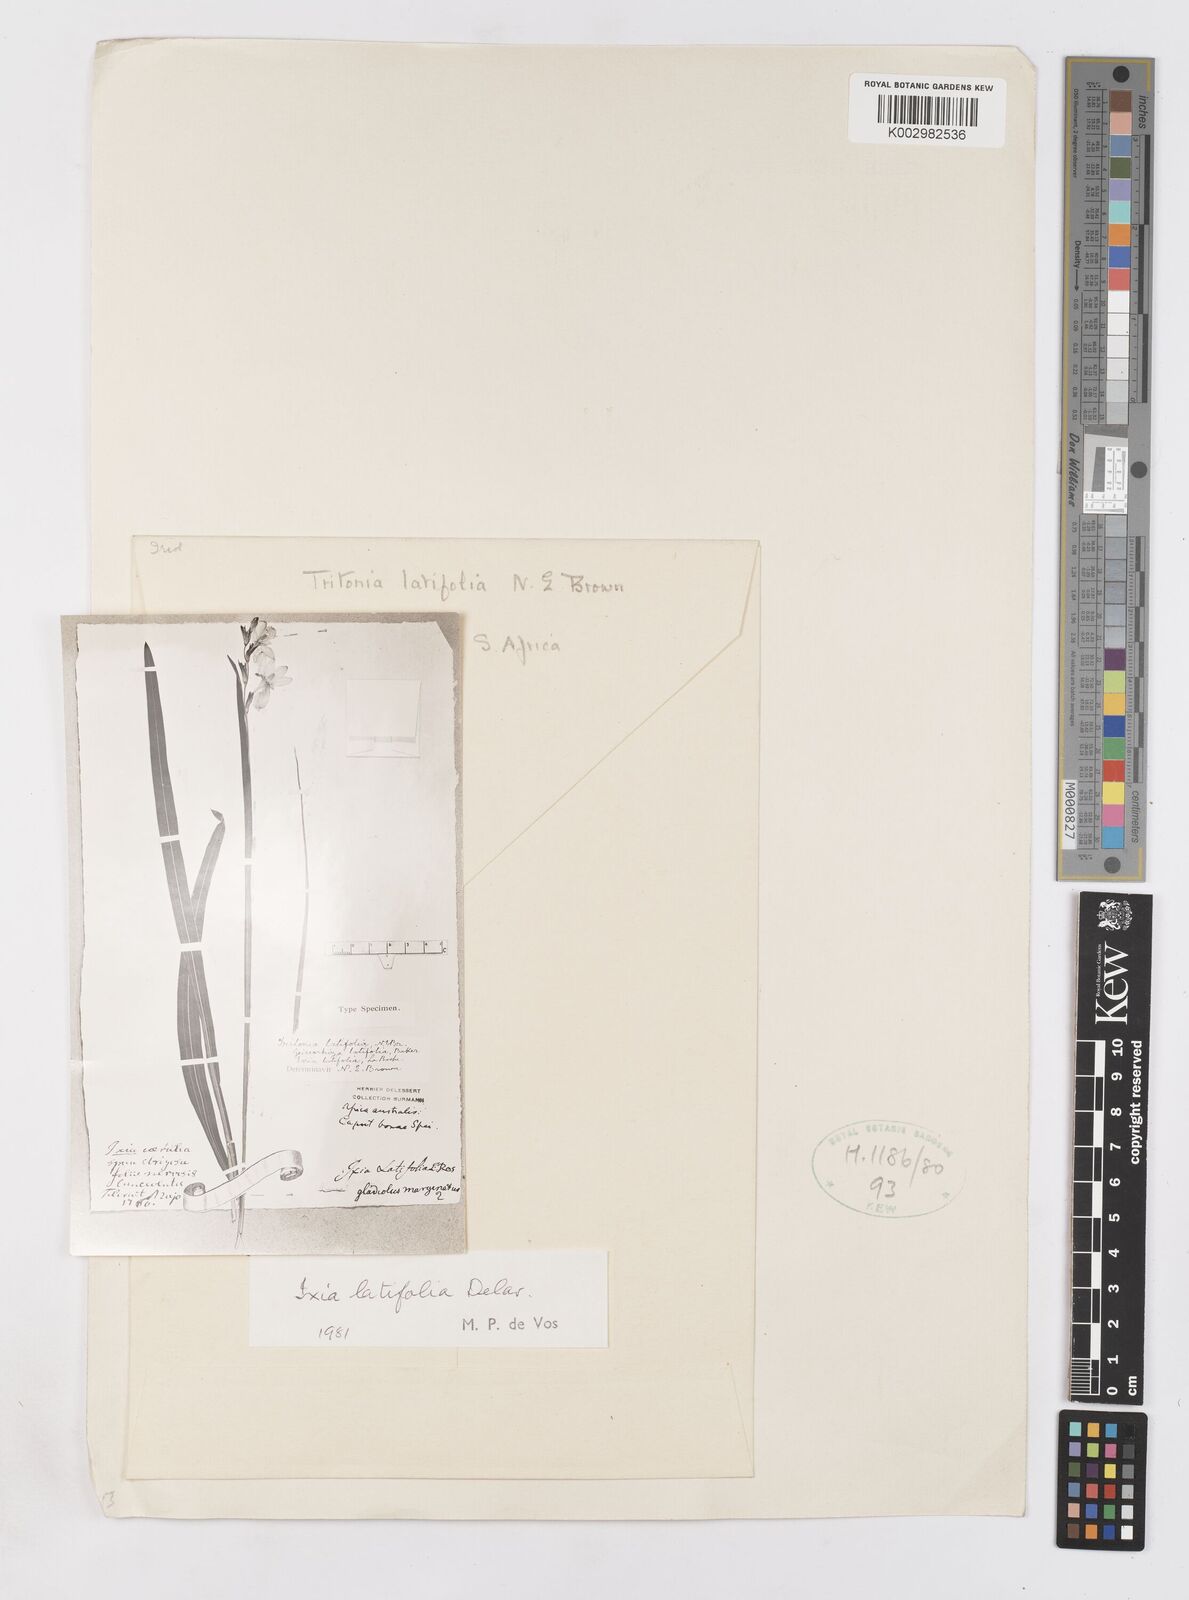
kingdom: Plantae
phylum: Tracheophyta
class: Liliopsida
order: Asparagales
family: Iridaceae
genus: Ixia
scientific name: Ixia latifolia
